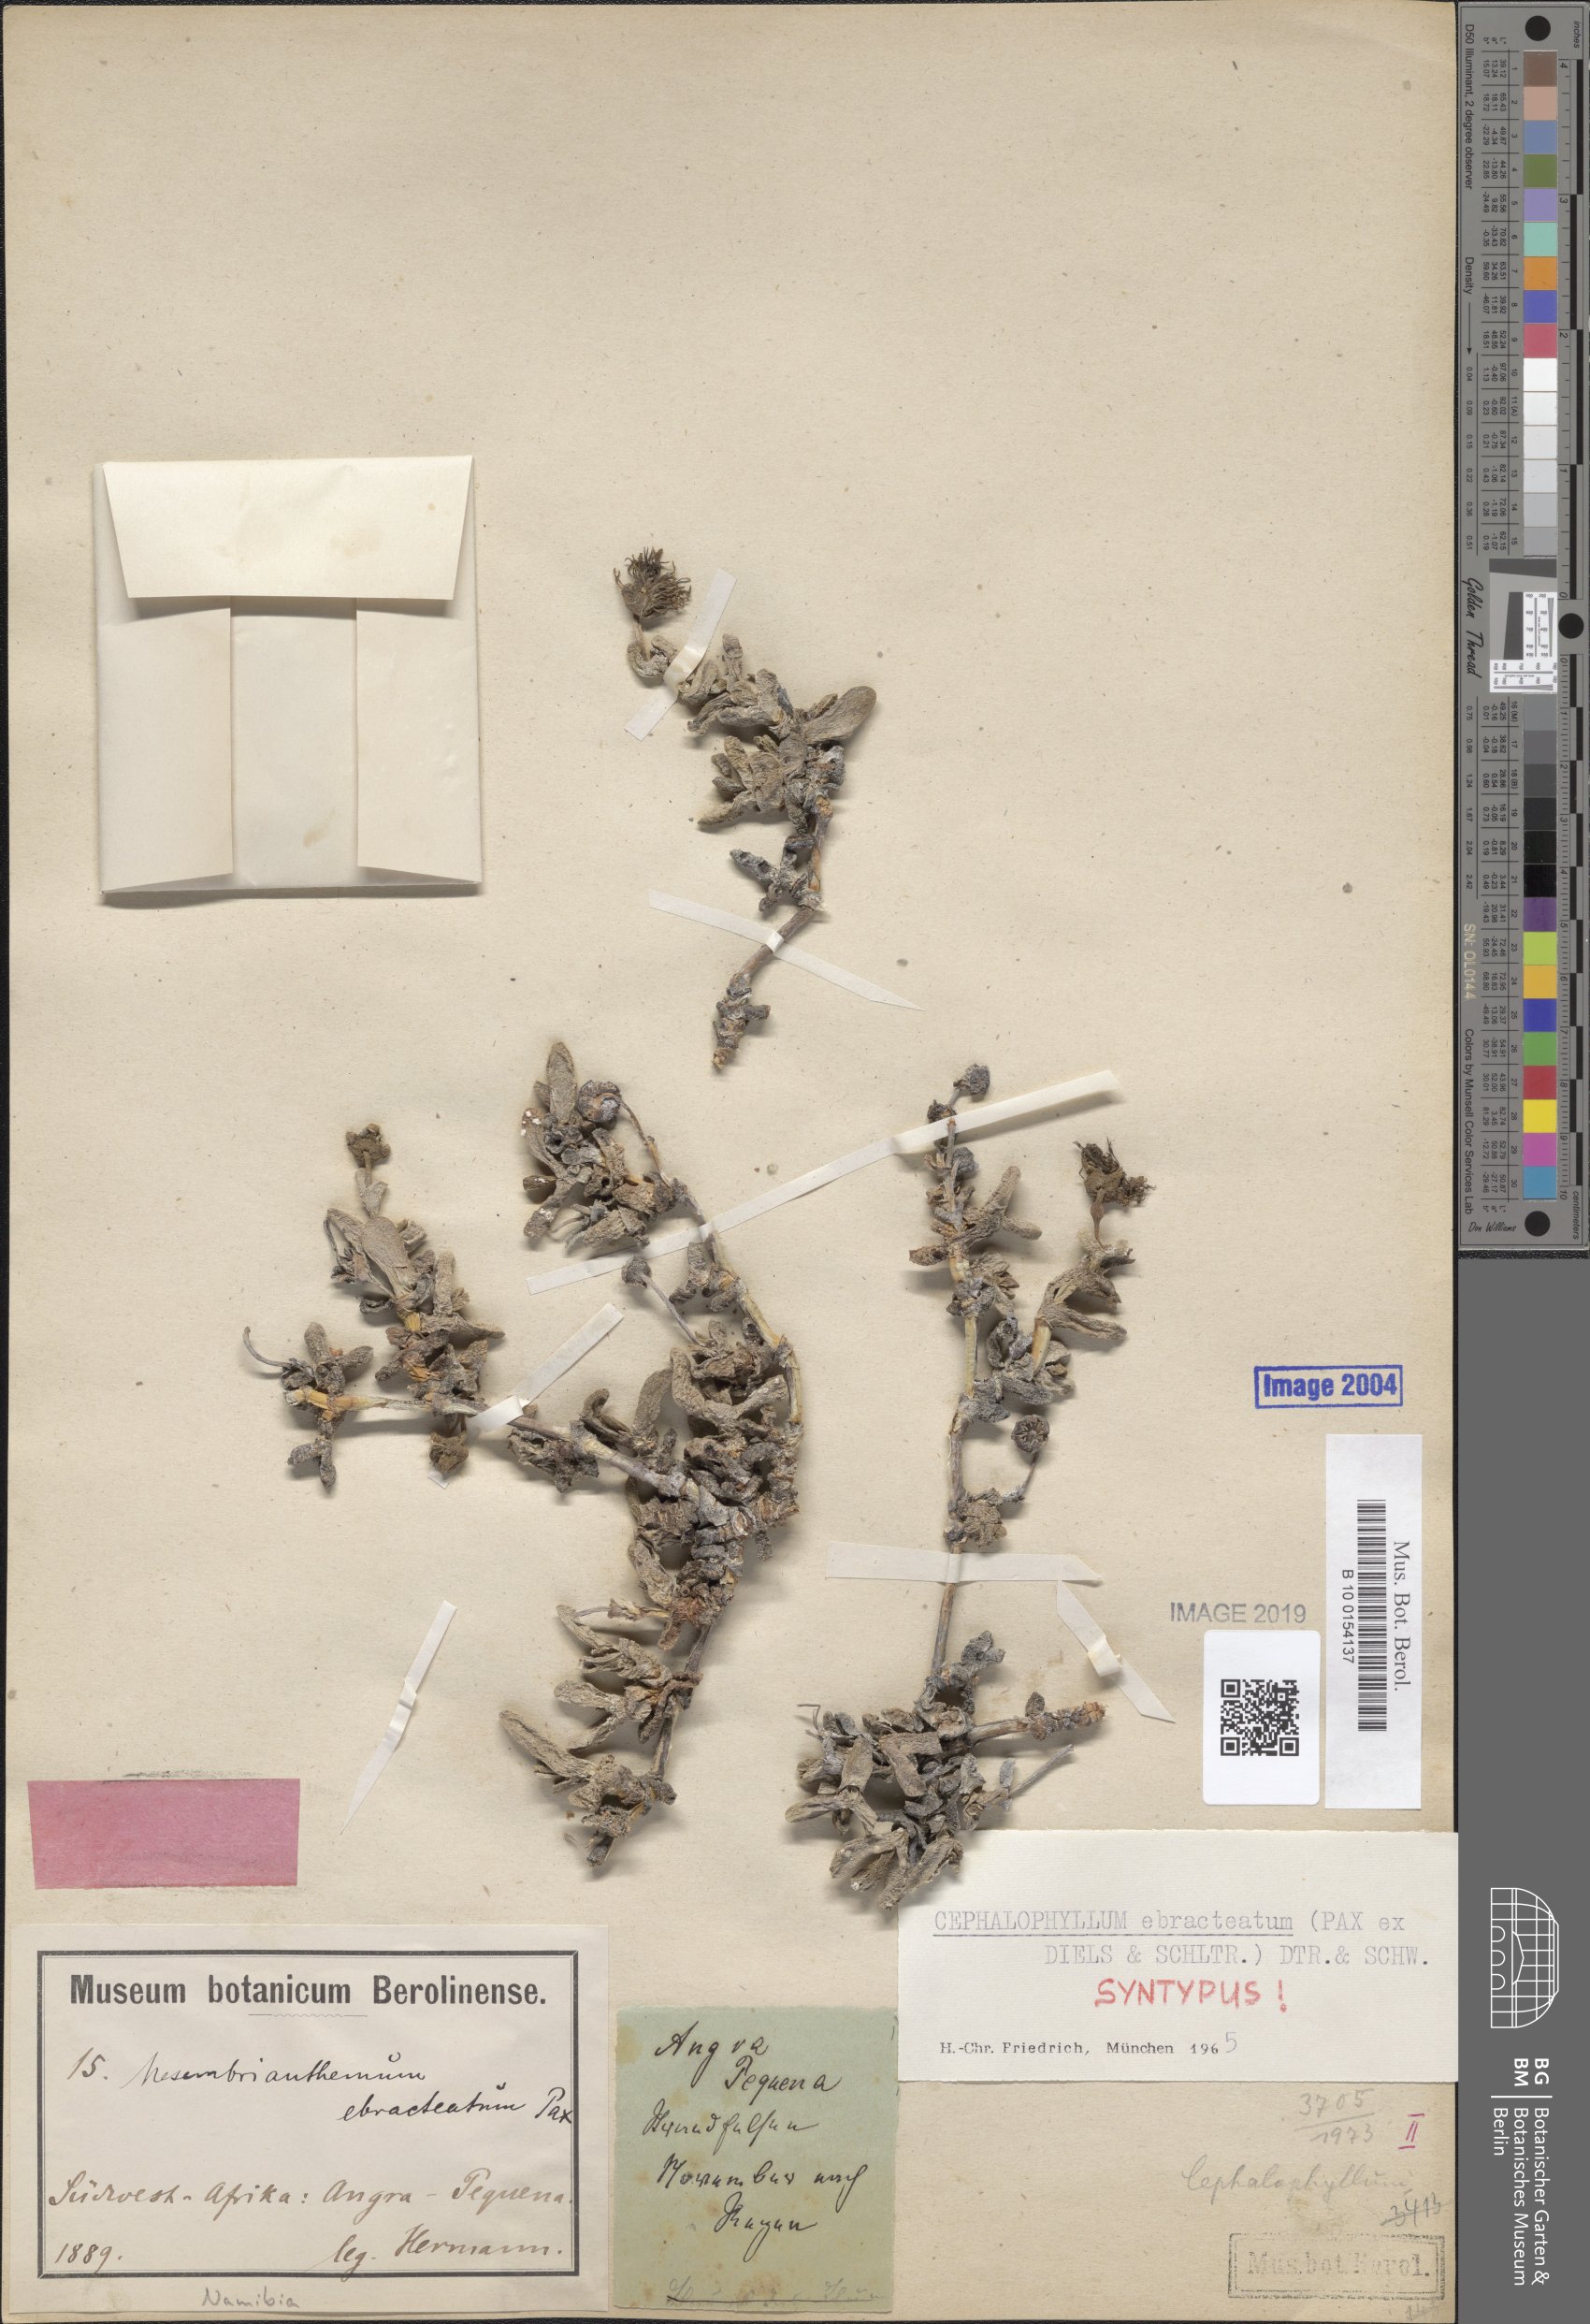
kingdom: Plantae
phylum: Tracheophyta
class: Magnoliopsida
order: Caryophyllales
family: Aizoaceae
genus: Cephalophyllum
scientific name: Cephalophyllum ebracteatum
